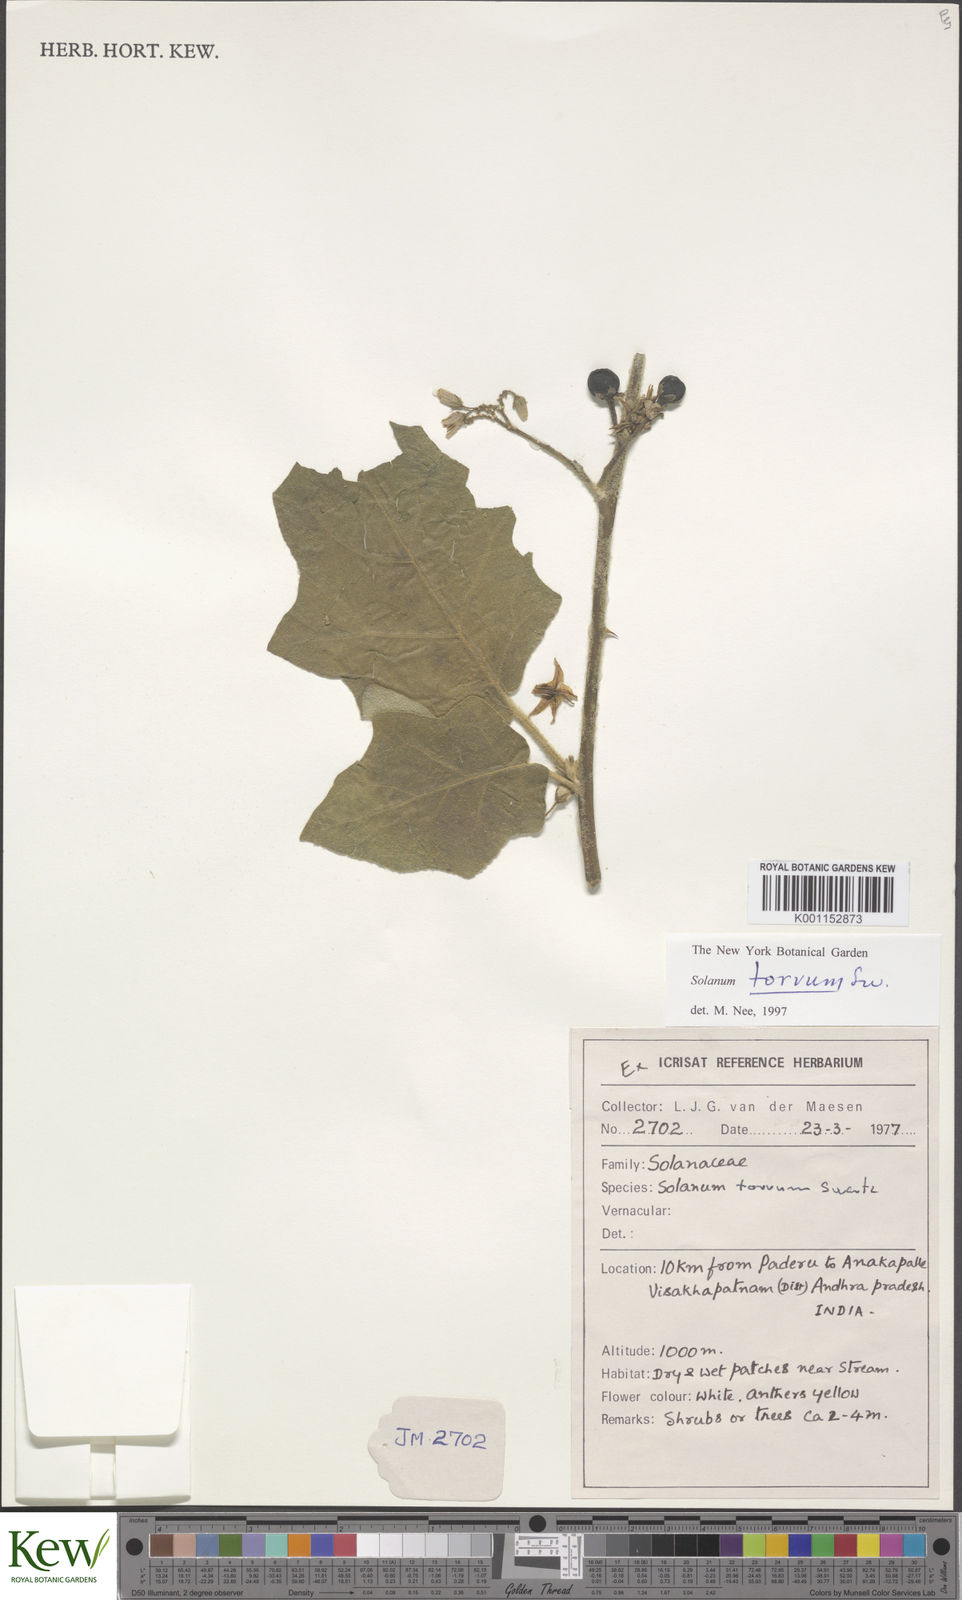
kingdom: Plantae
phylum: Tracheophyta
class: Magnoliopsida
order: Solanales
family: Solanaceae
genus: Solanum
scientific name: Solanum torvum
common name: Turkey berry
